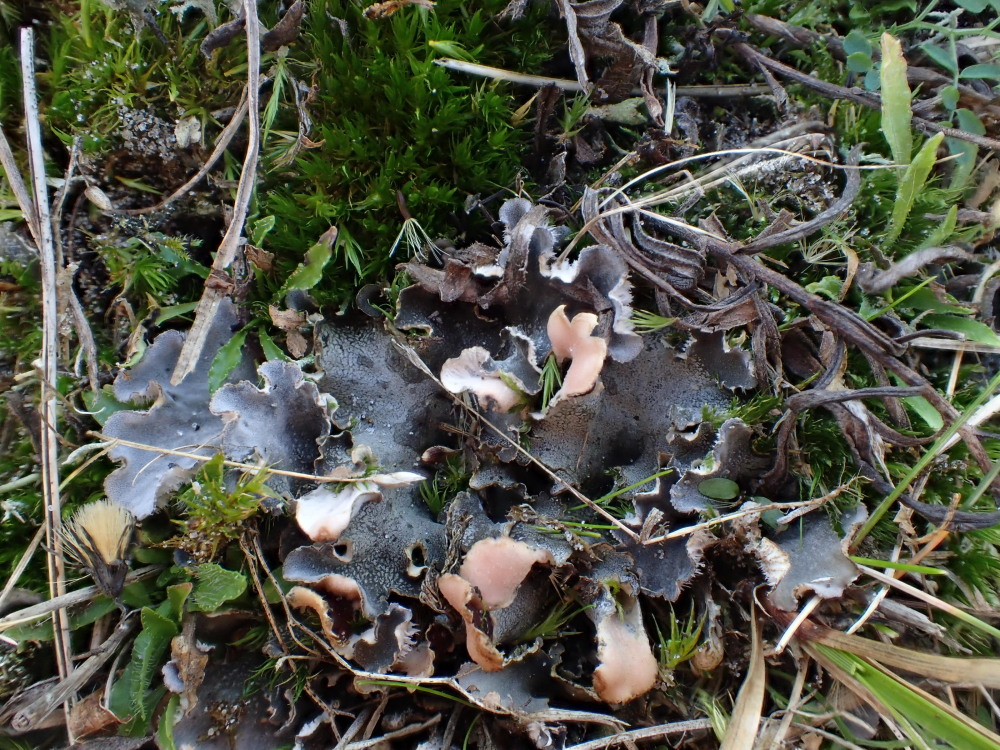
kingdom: Fungi
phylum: Ascomycota
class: Lecanoromycetes
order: Peltigerales
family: Peltigeraceae
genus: Peltigera
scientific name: Peltigera canina
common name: hunde-skjoldlav
